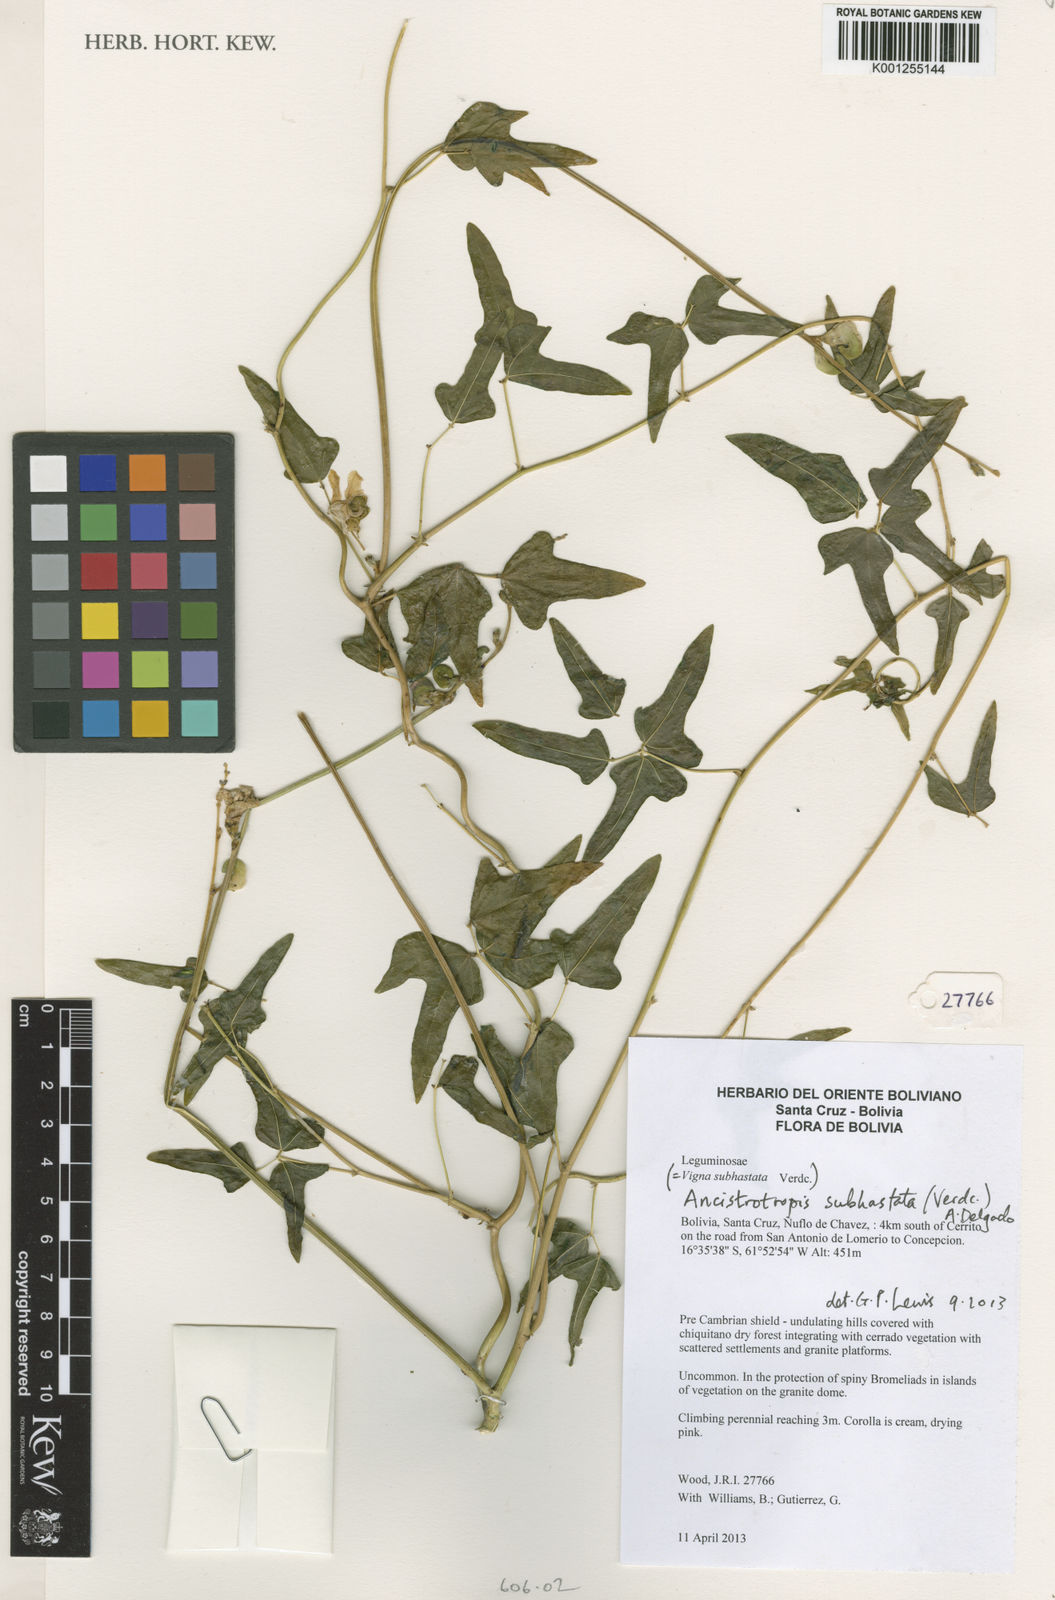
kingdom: Plantae
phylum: Tracheophyta
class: Magnoliopsida
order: Fabales
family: Fabaceae
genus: Ancistrotropis
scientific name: Ancistrotropis subhastata
